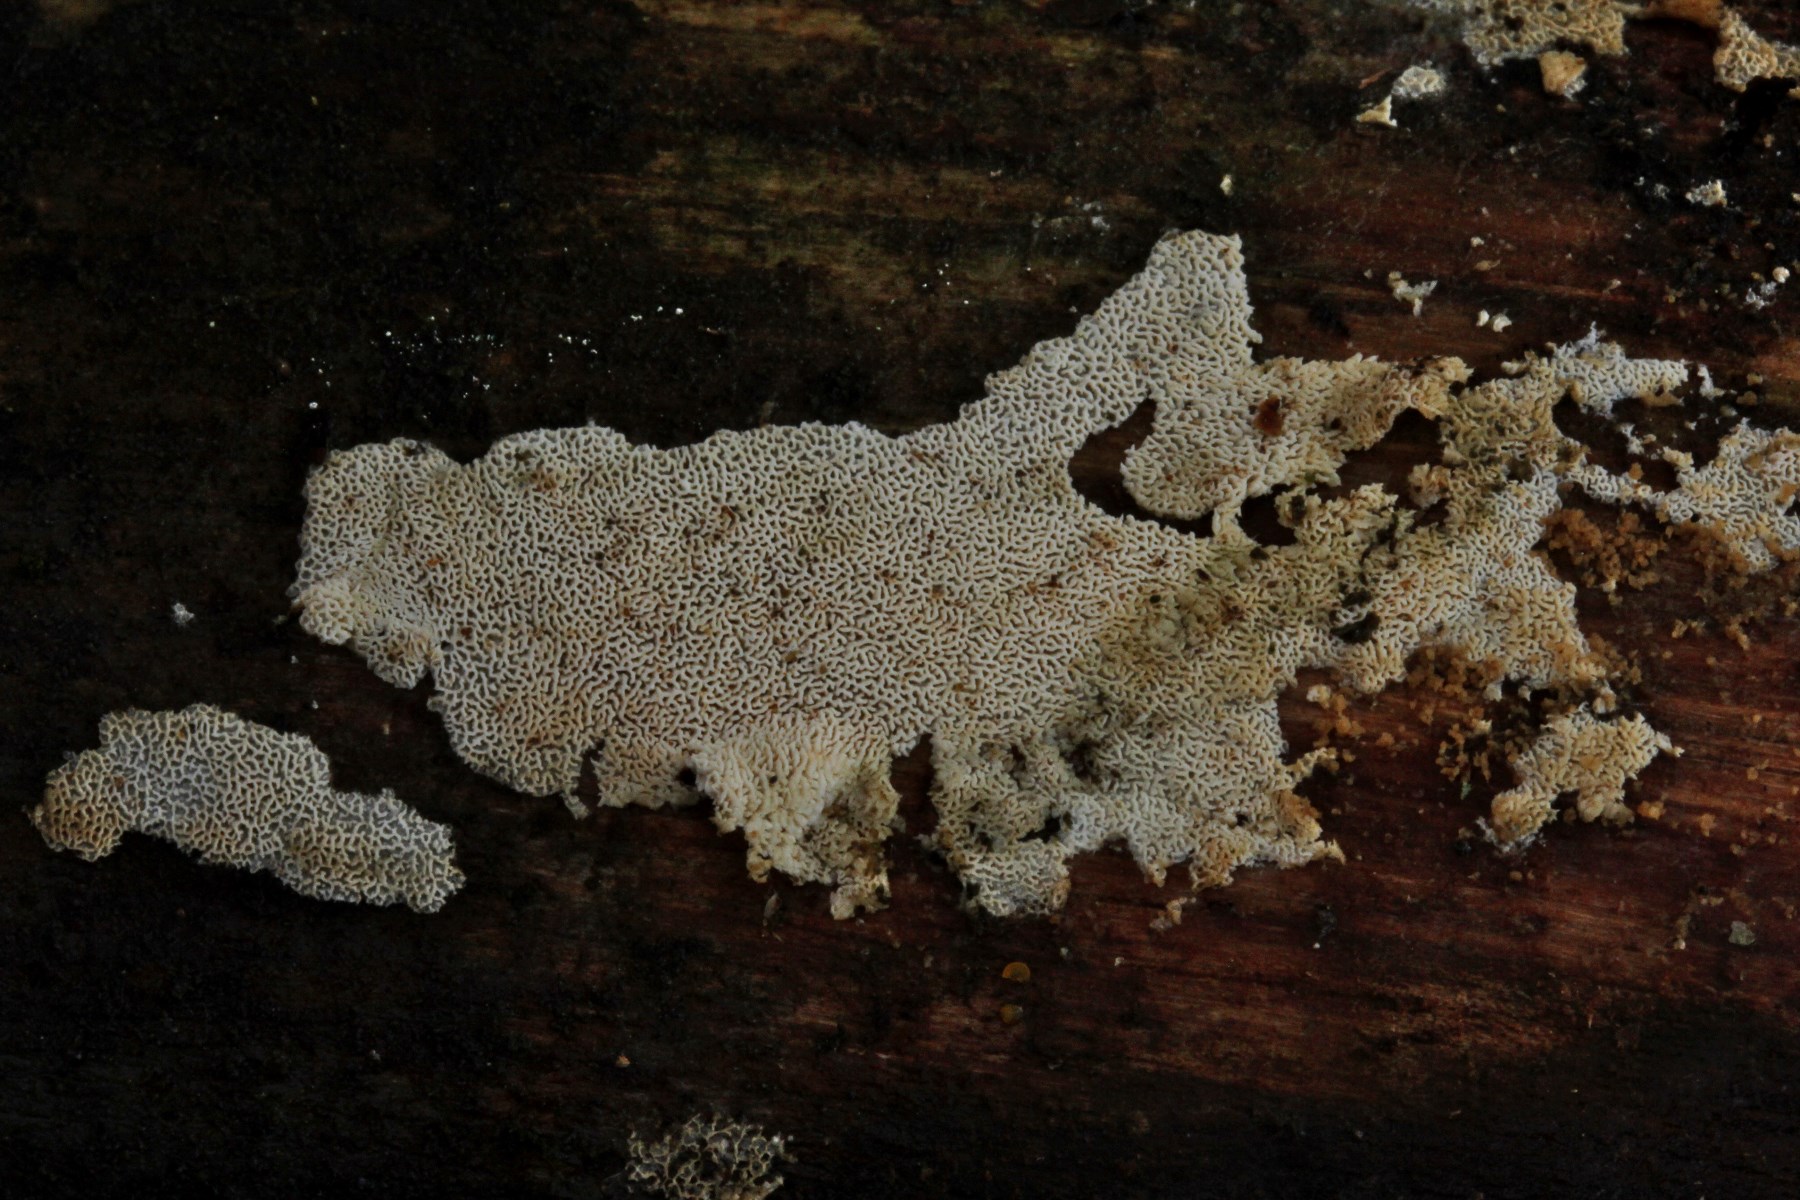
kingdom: Fungi
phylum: Basidiomycota
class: Agaricomycetes
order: Hymenochaetales
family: Schizoporaceae
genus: Xylodon
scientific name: Xylodon subtropicus
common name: labyrint-tandsvamp
